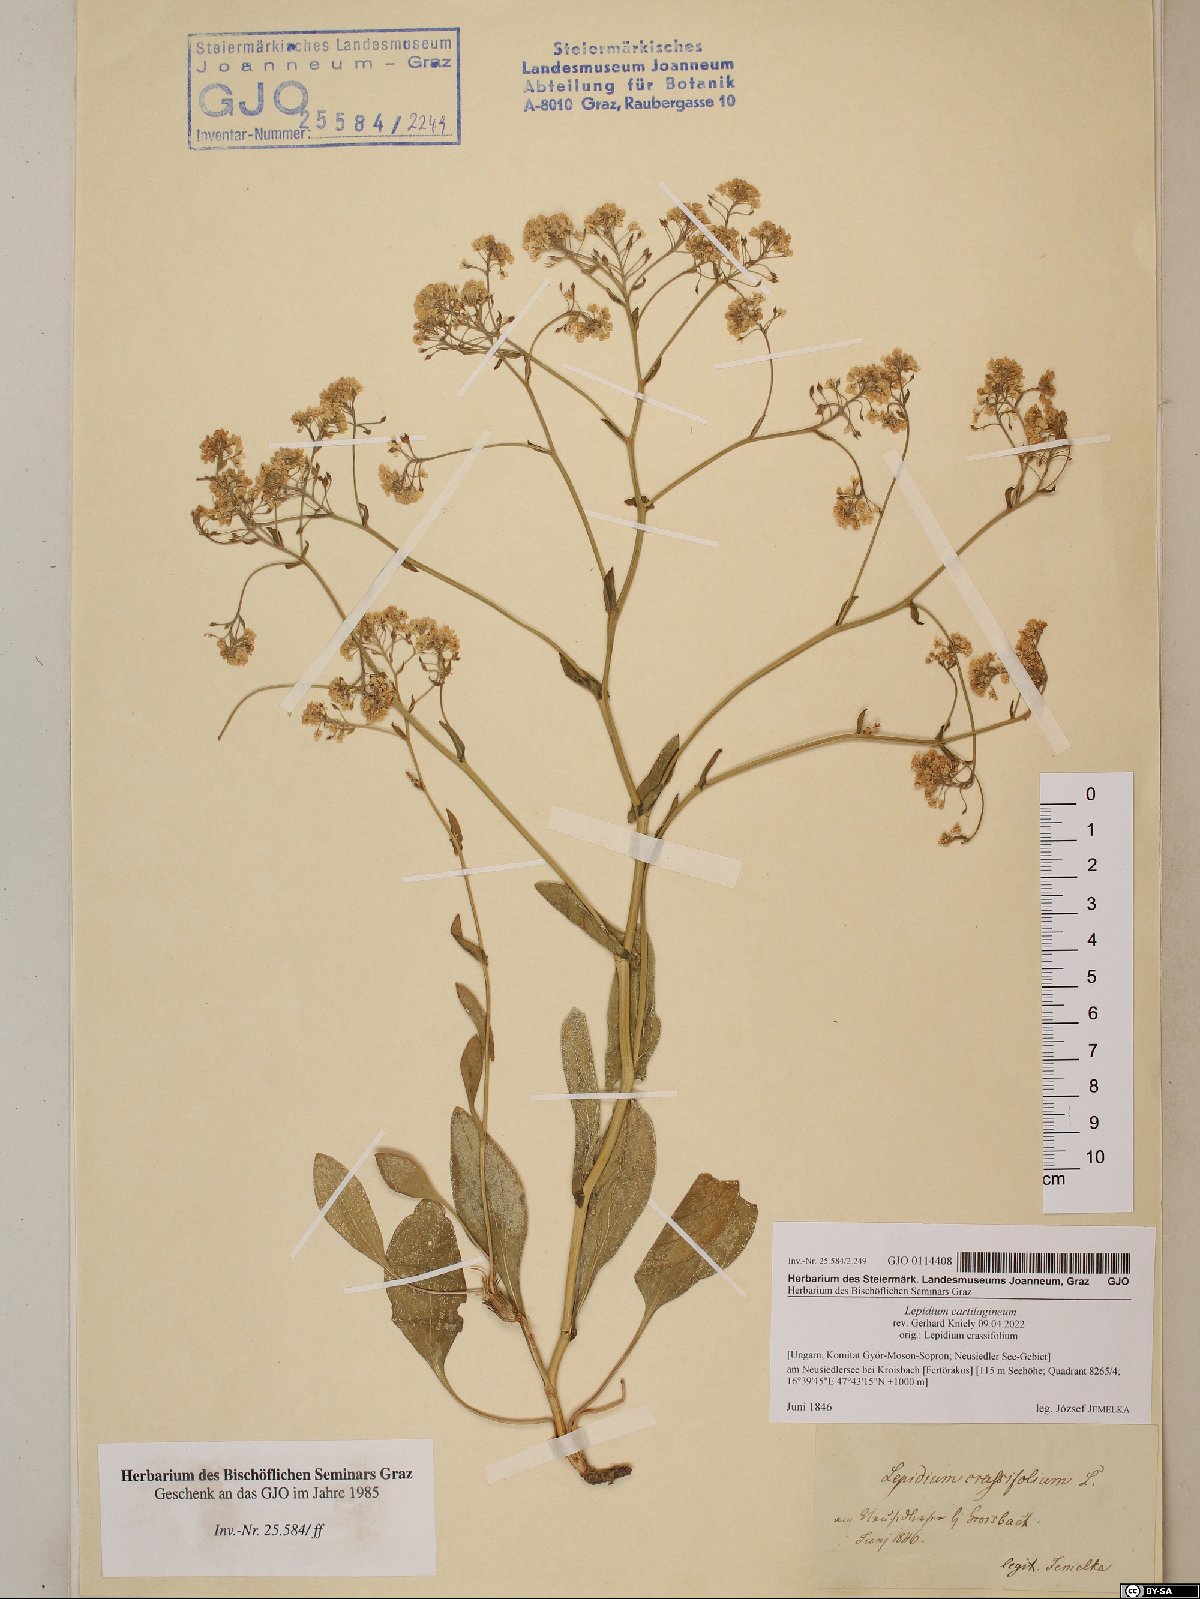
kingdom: Plantae
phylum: Tracheophyta
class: Magnoliopsida
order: Brassicales
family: Brassicaceae
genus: Lepidium
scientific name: Lepidium cartilagineum
